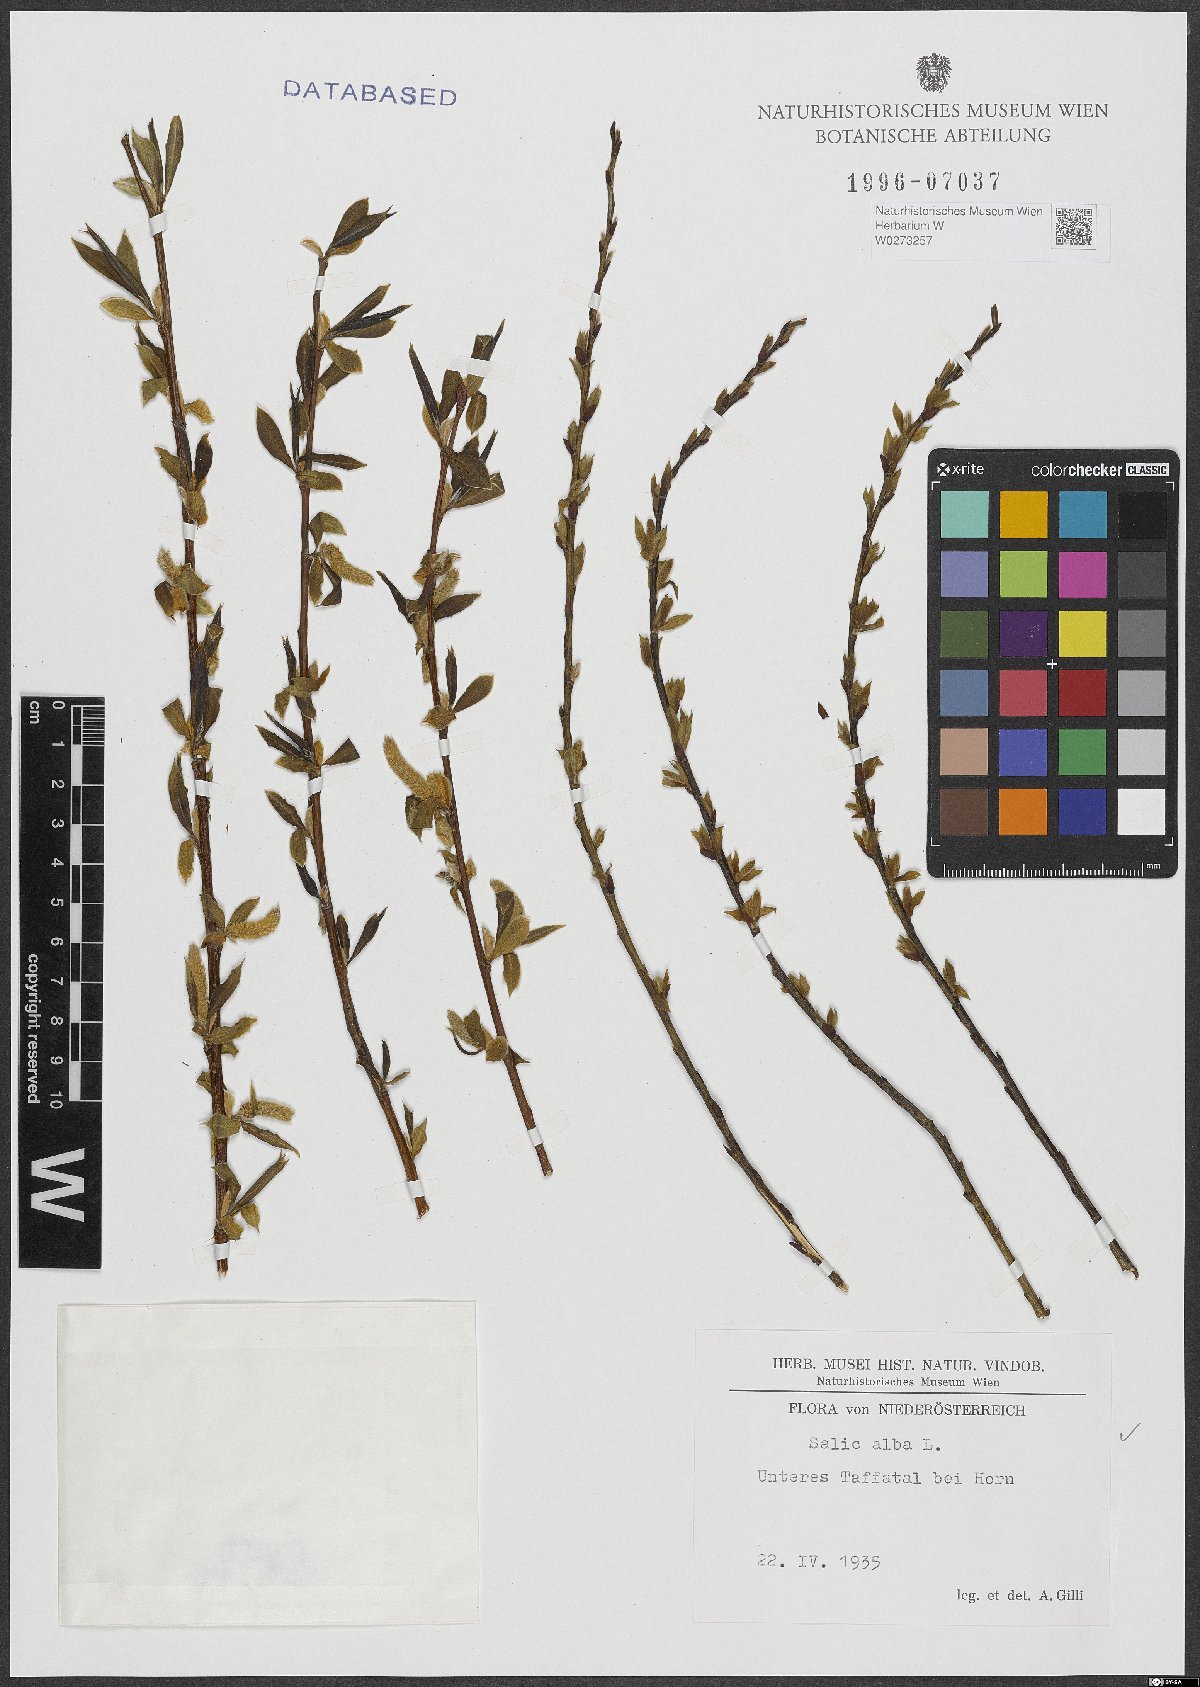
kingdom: Plantae
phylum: Tracheophyta
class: Magnoliopsida
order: Malpighiales
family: Salicaceae
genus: Salix
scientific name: Salix alba
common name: White willow
